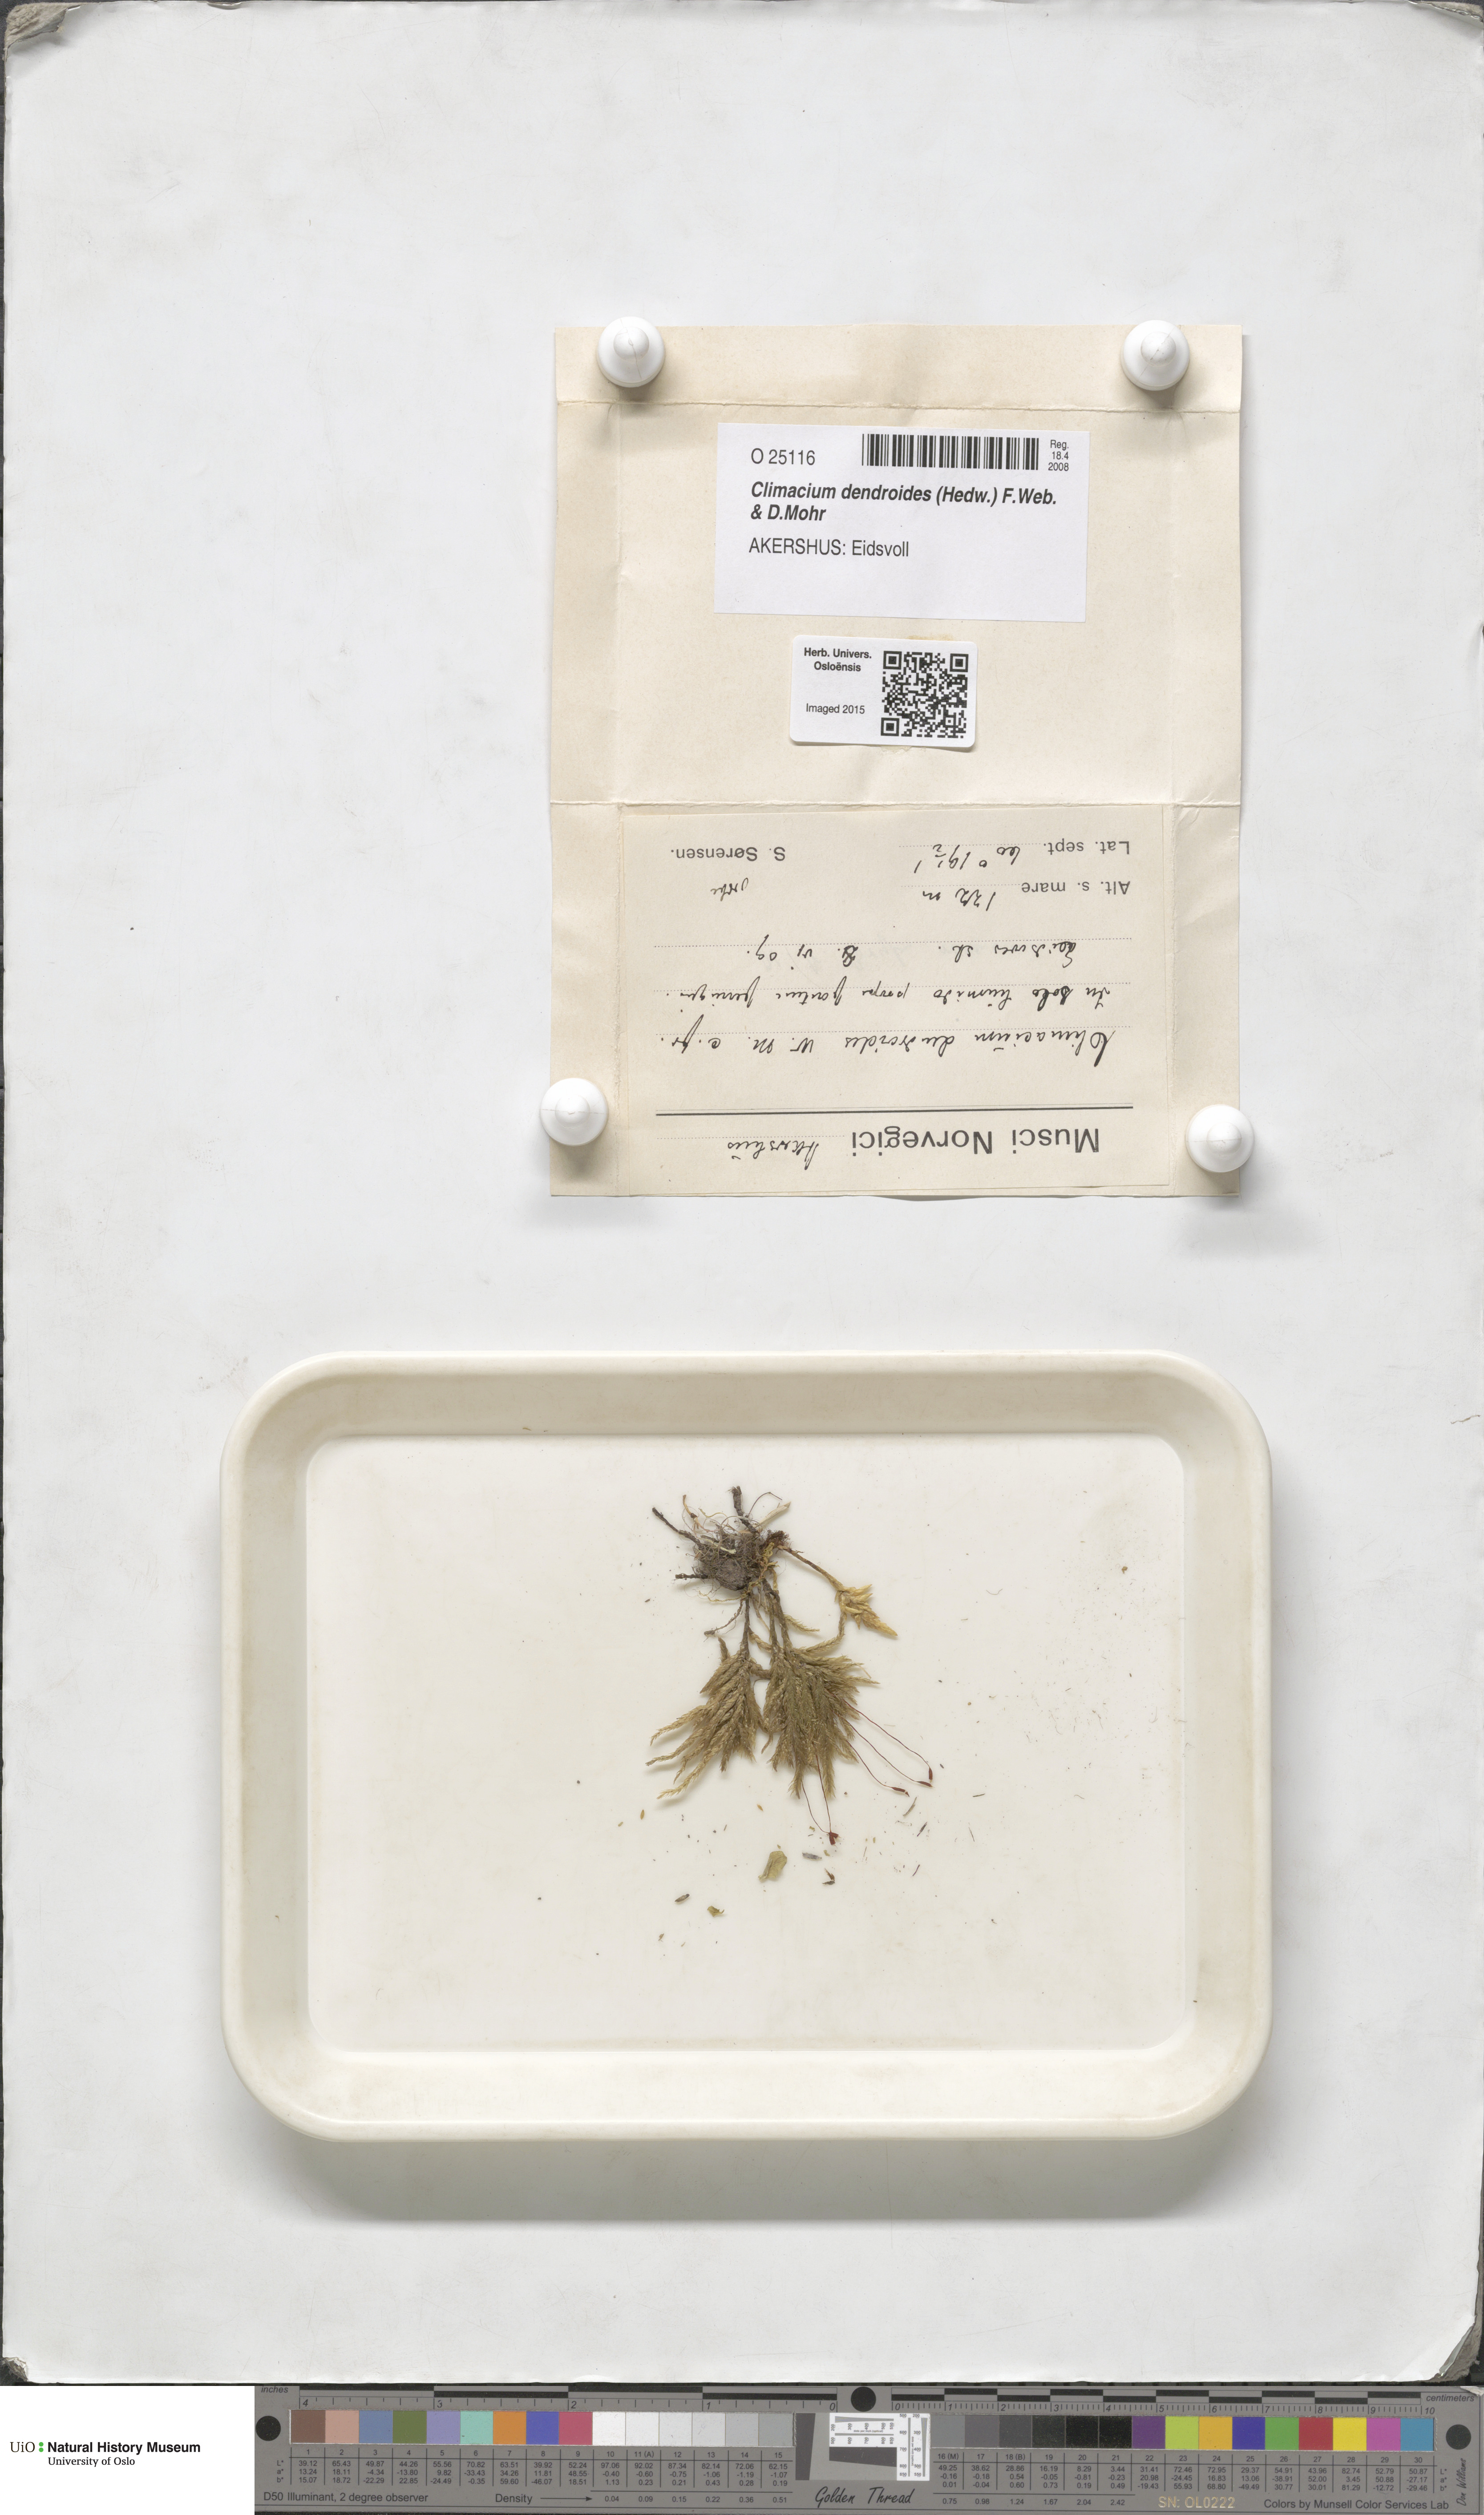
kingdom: Plantae
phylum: Bryophyta
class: Bryopsida
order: Hypnales
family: Climaciaceae
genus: Climacium
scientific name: Climacium dendroides
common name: Northern tree moss
